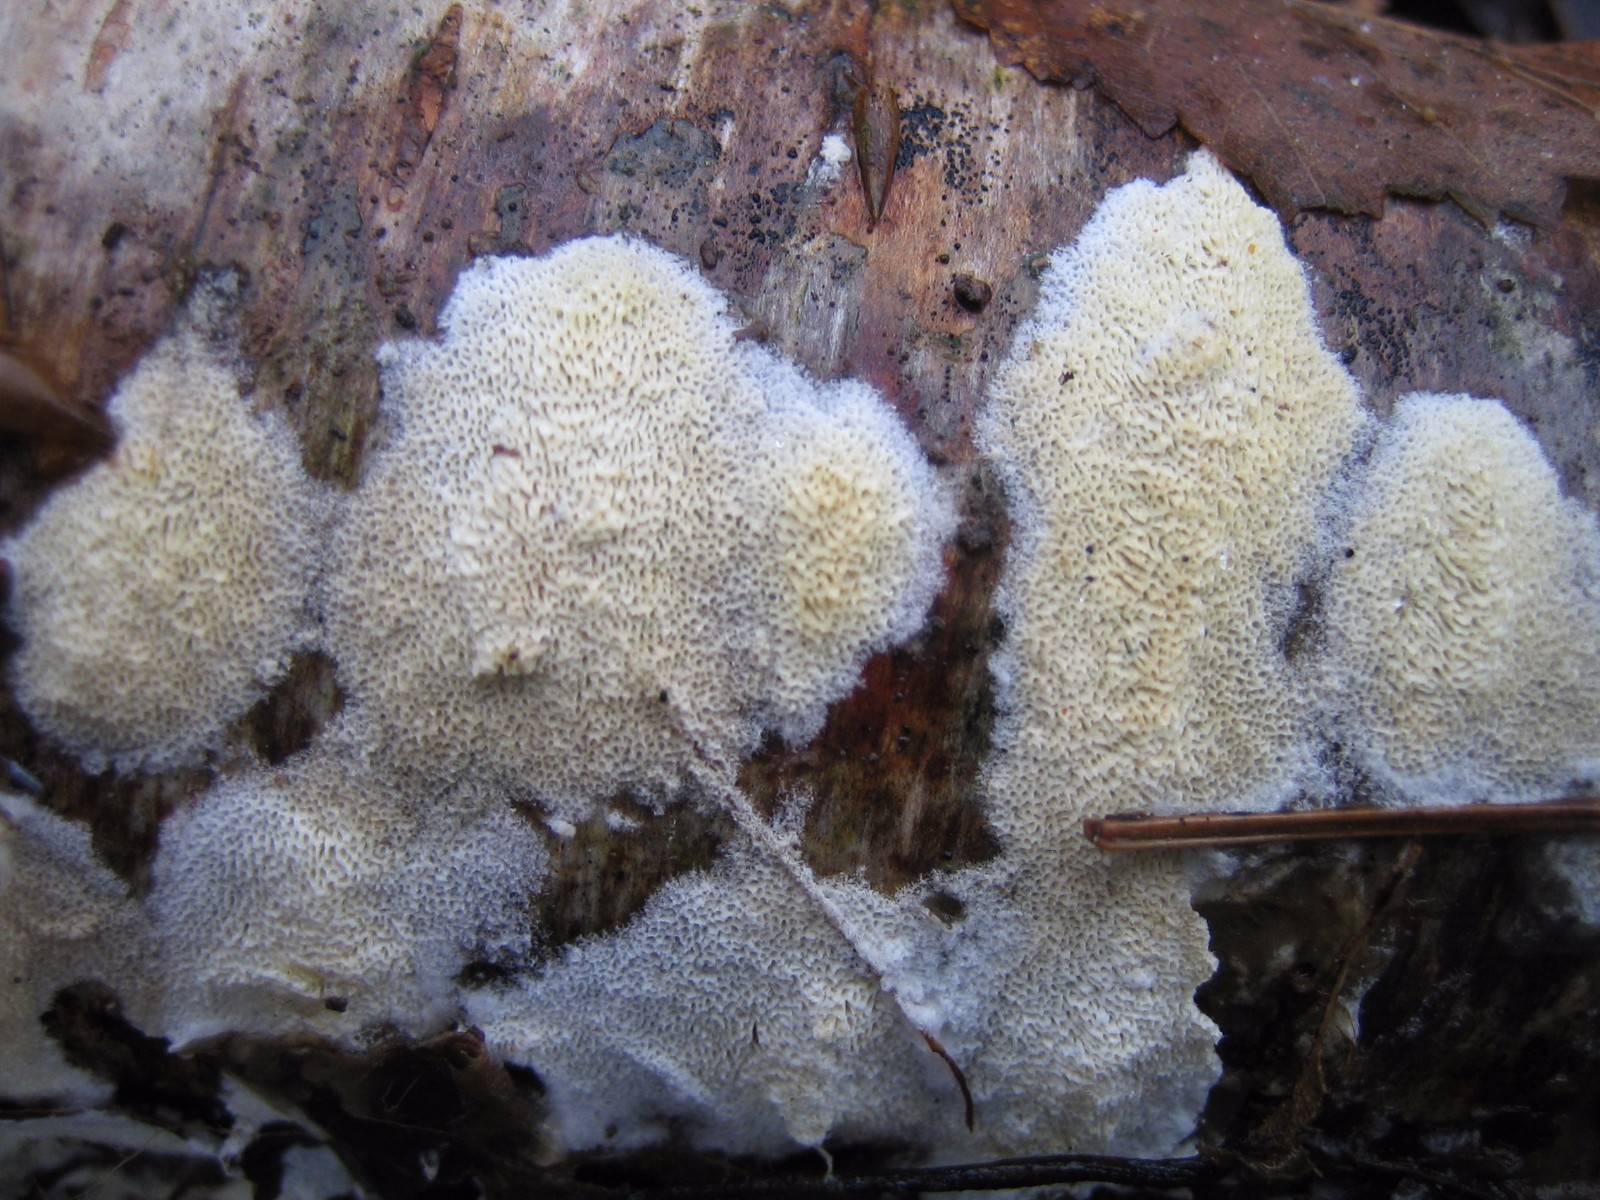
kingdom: Fungi
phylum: Basidiomycota
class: Agaricomycetes
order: Polyporales
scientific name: Polyporales
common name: poresvampordenen
